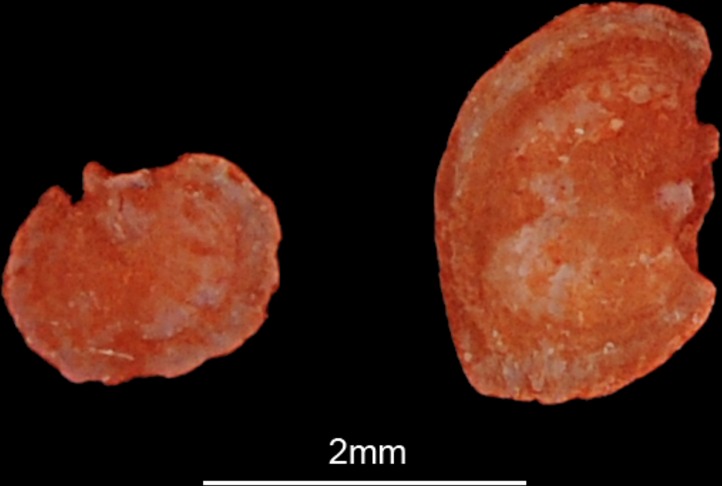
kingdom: Animalia
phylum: Chordata
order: Siluriformes
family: Claroteidae
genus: Chrysichthys
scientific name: Chrysichthys auratus
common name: Golden nile catfish
